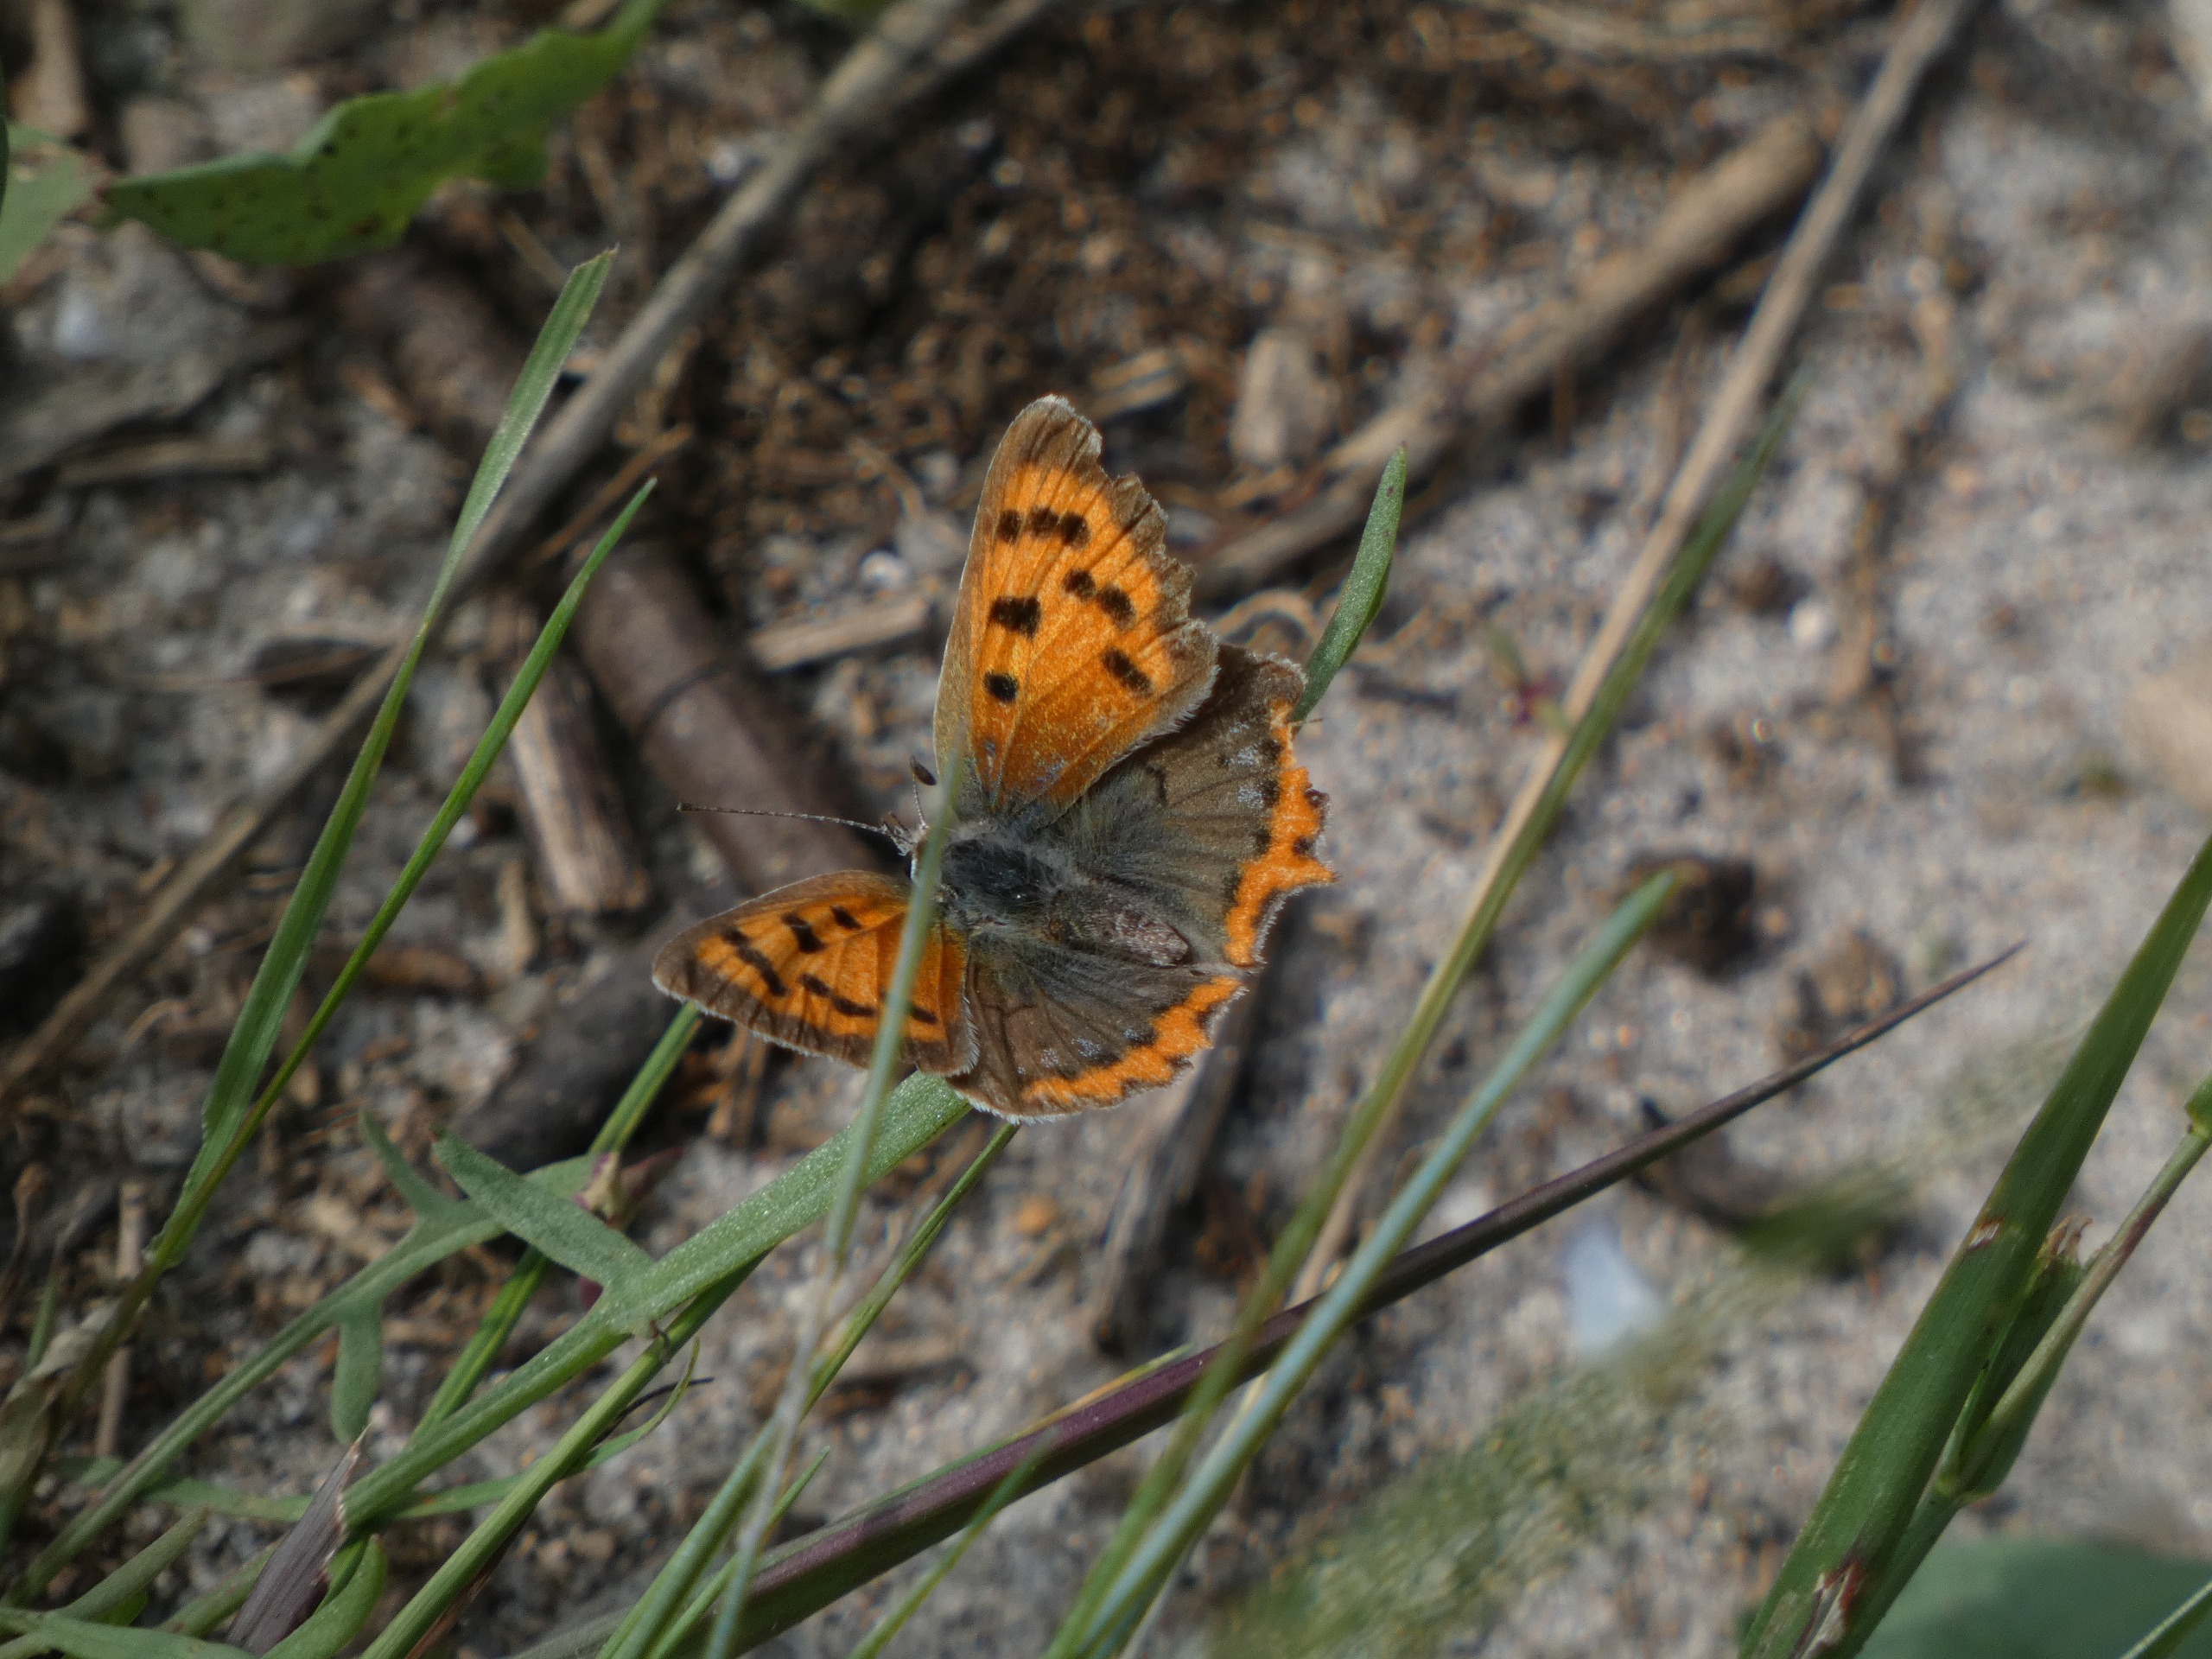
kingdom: Animalia
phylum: Arthropoda
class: Insecta
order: Lepidoptera
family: Lycaenidae
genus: Lycaena
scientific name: Lycaena phlaeas
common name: Lille ildfugl
